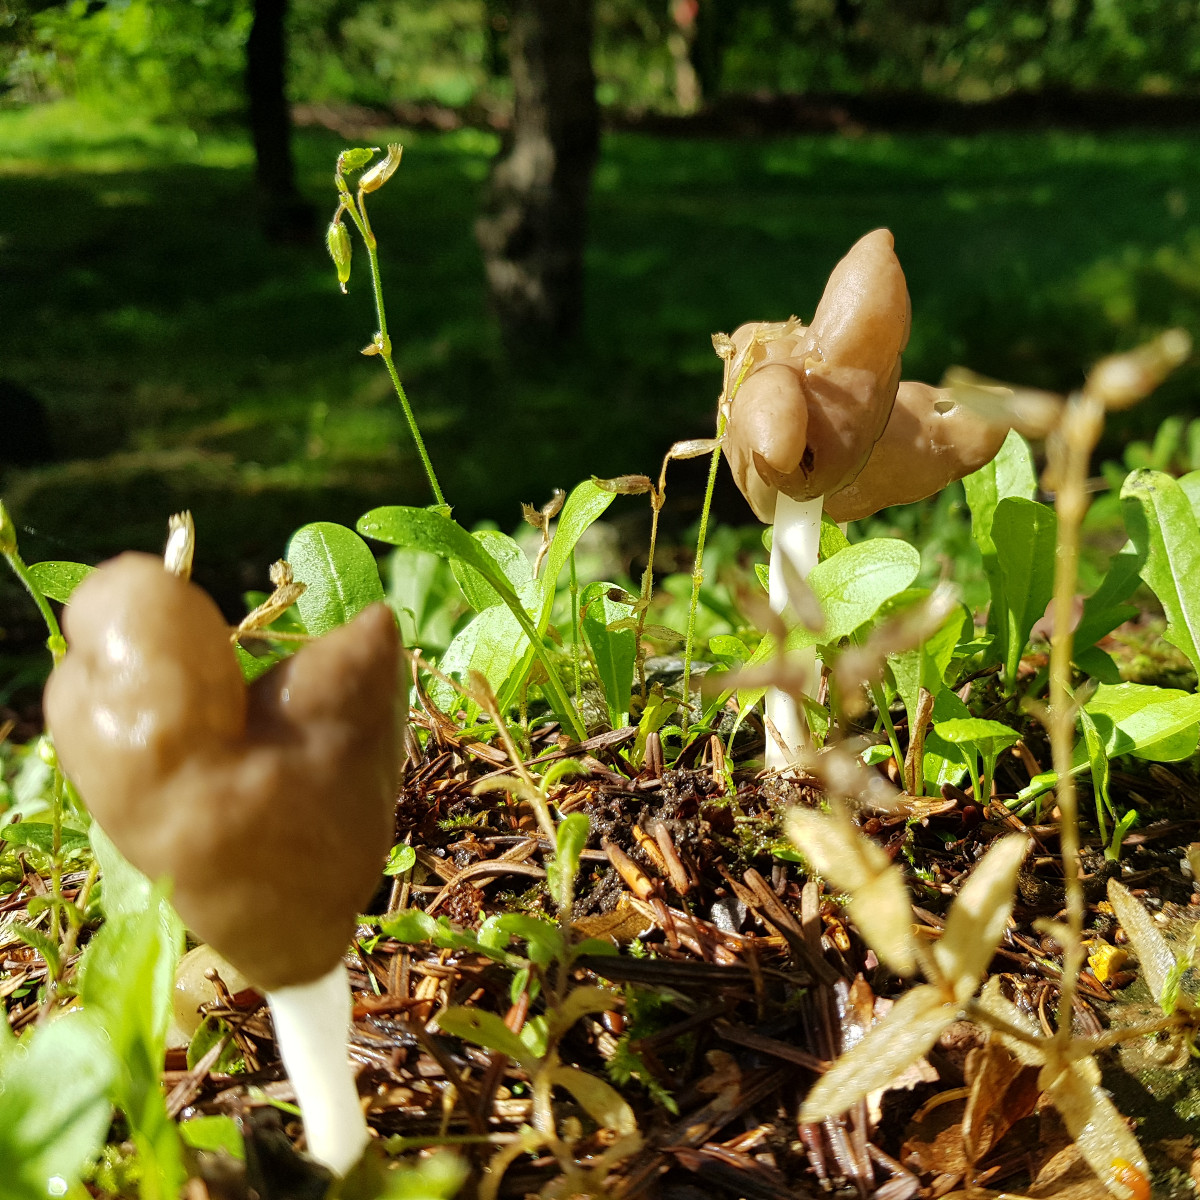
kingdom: Fungi
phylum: Ascomycota
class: Pezizomycetes
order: Pezizales
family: Helvellaceae
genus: Helvella
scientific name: Helvella elastica
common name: elastik-foldhat
